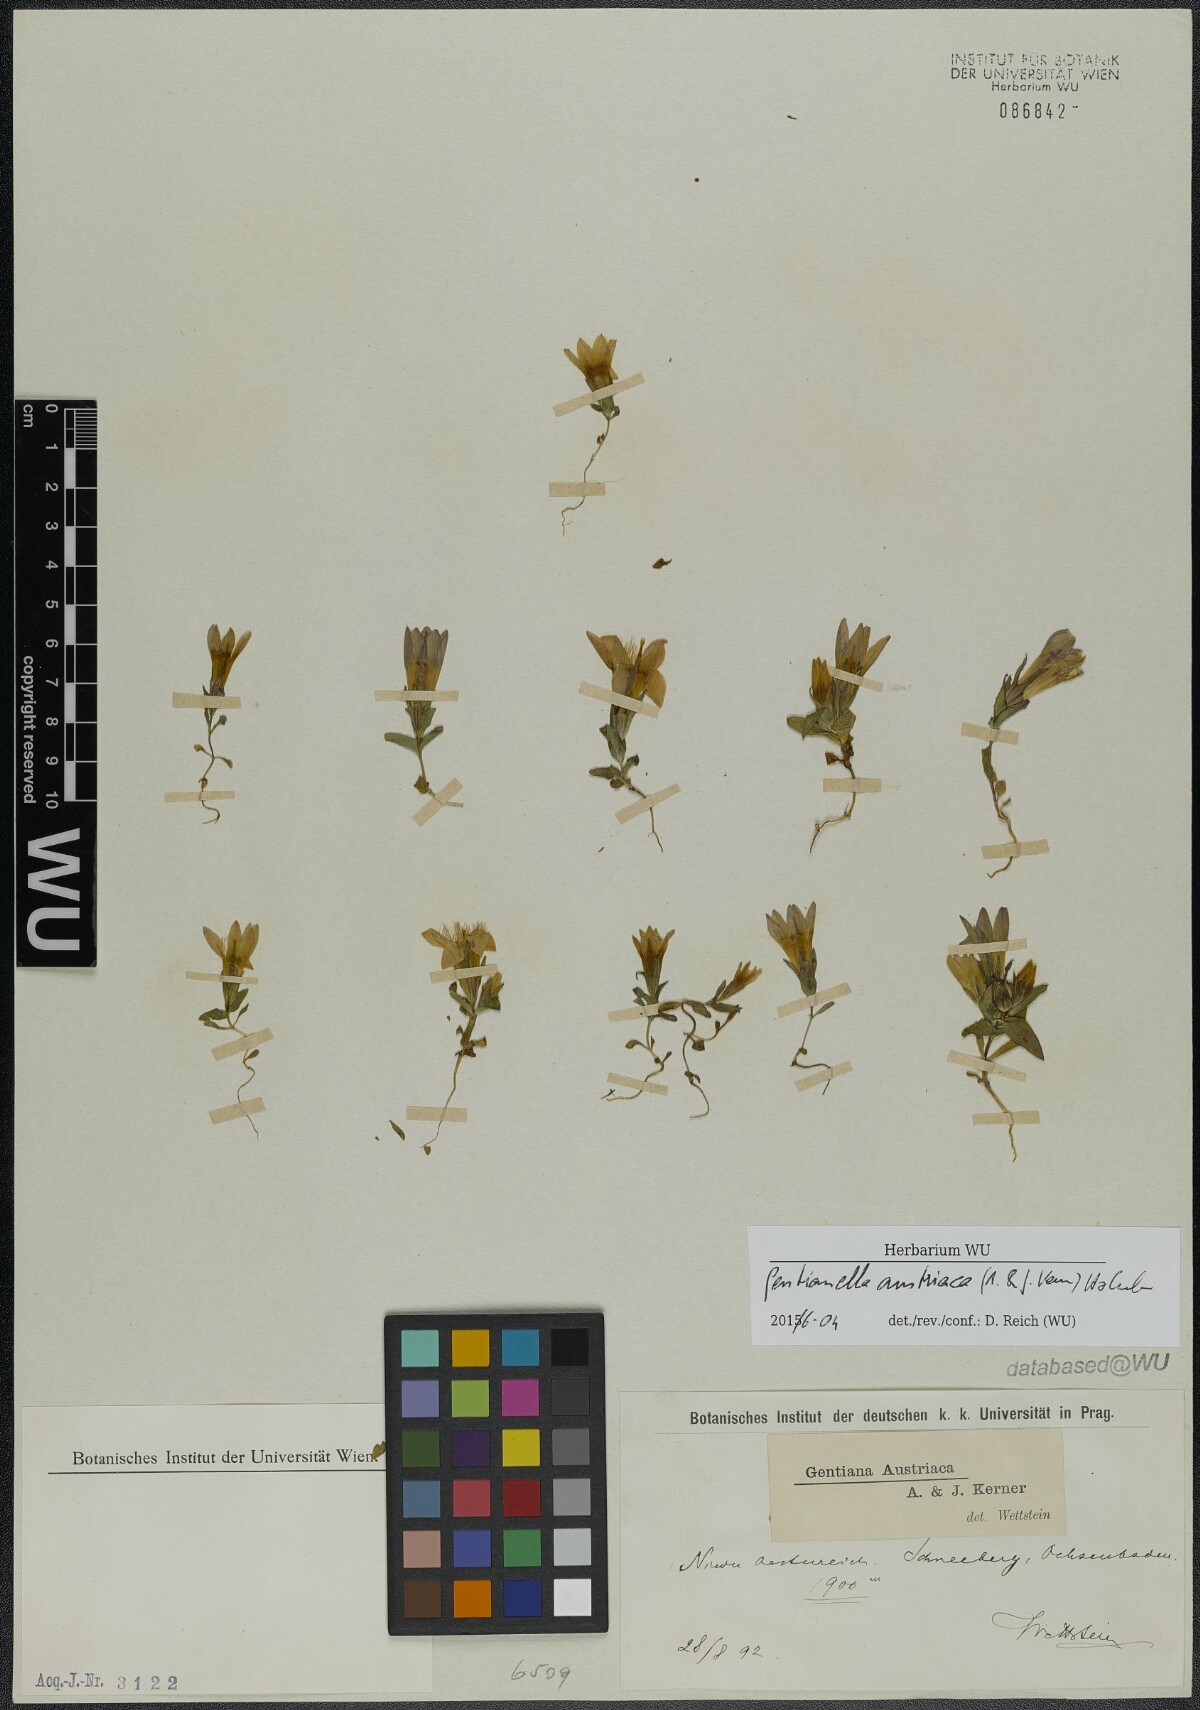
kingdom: Plantae
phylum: Tracheophyta
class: Magnoliopsida
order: Gentianales
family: Gentianaceae
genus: Gentianella
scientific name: Gentianella austriaca
